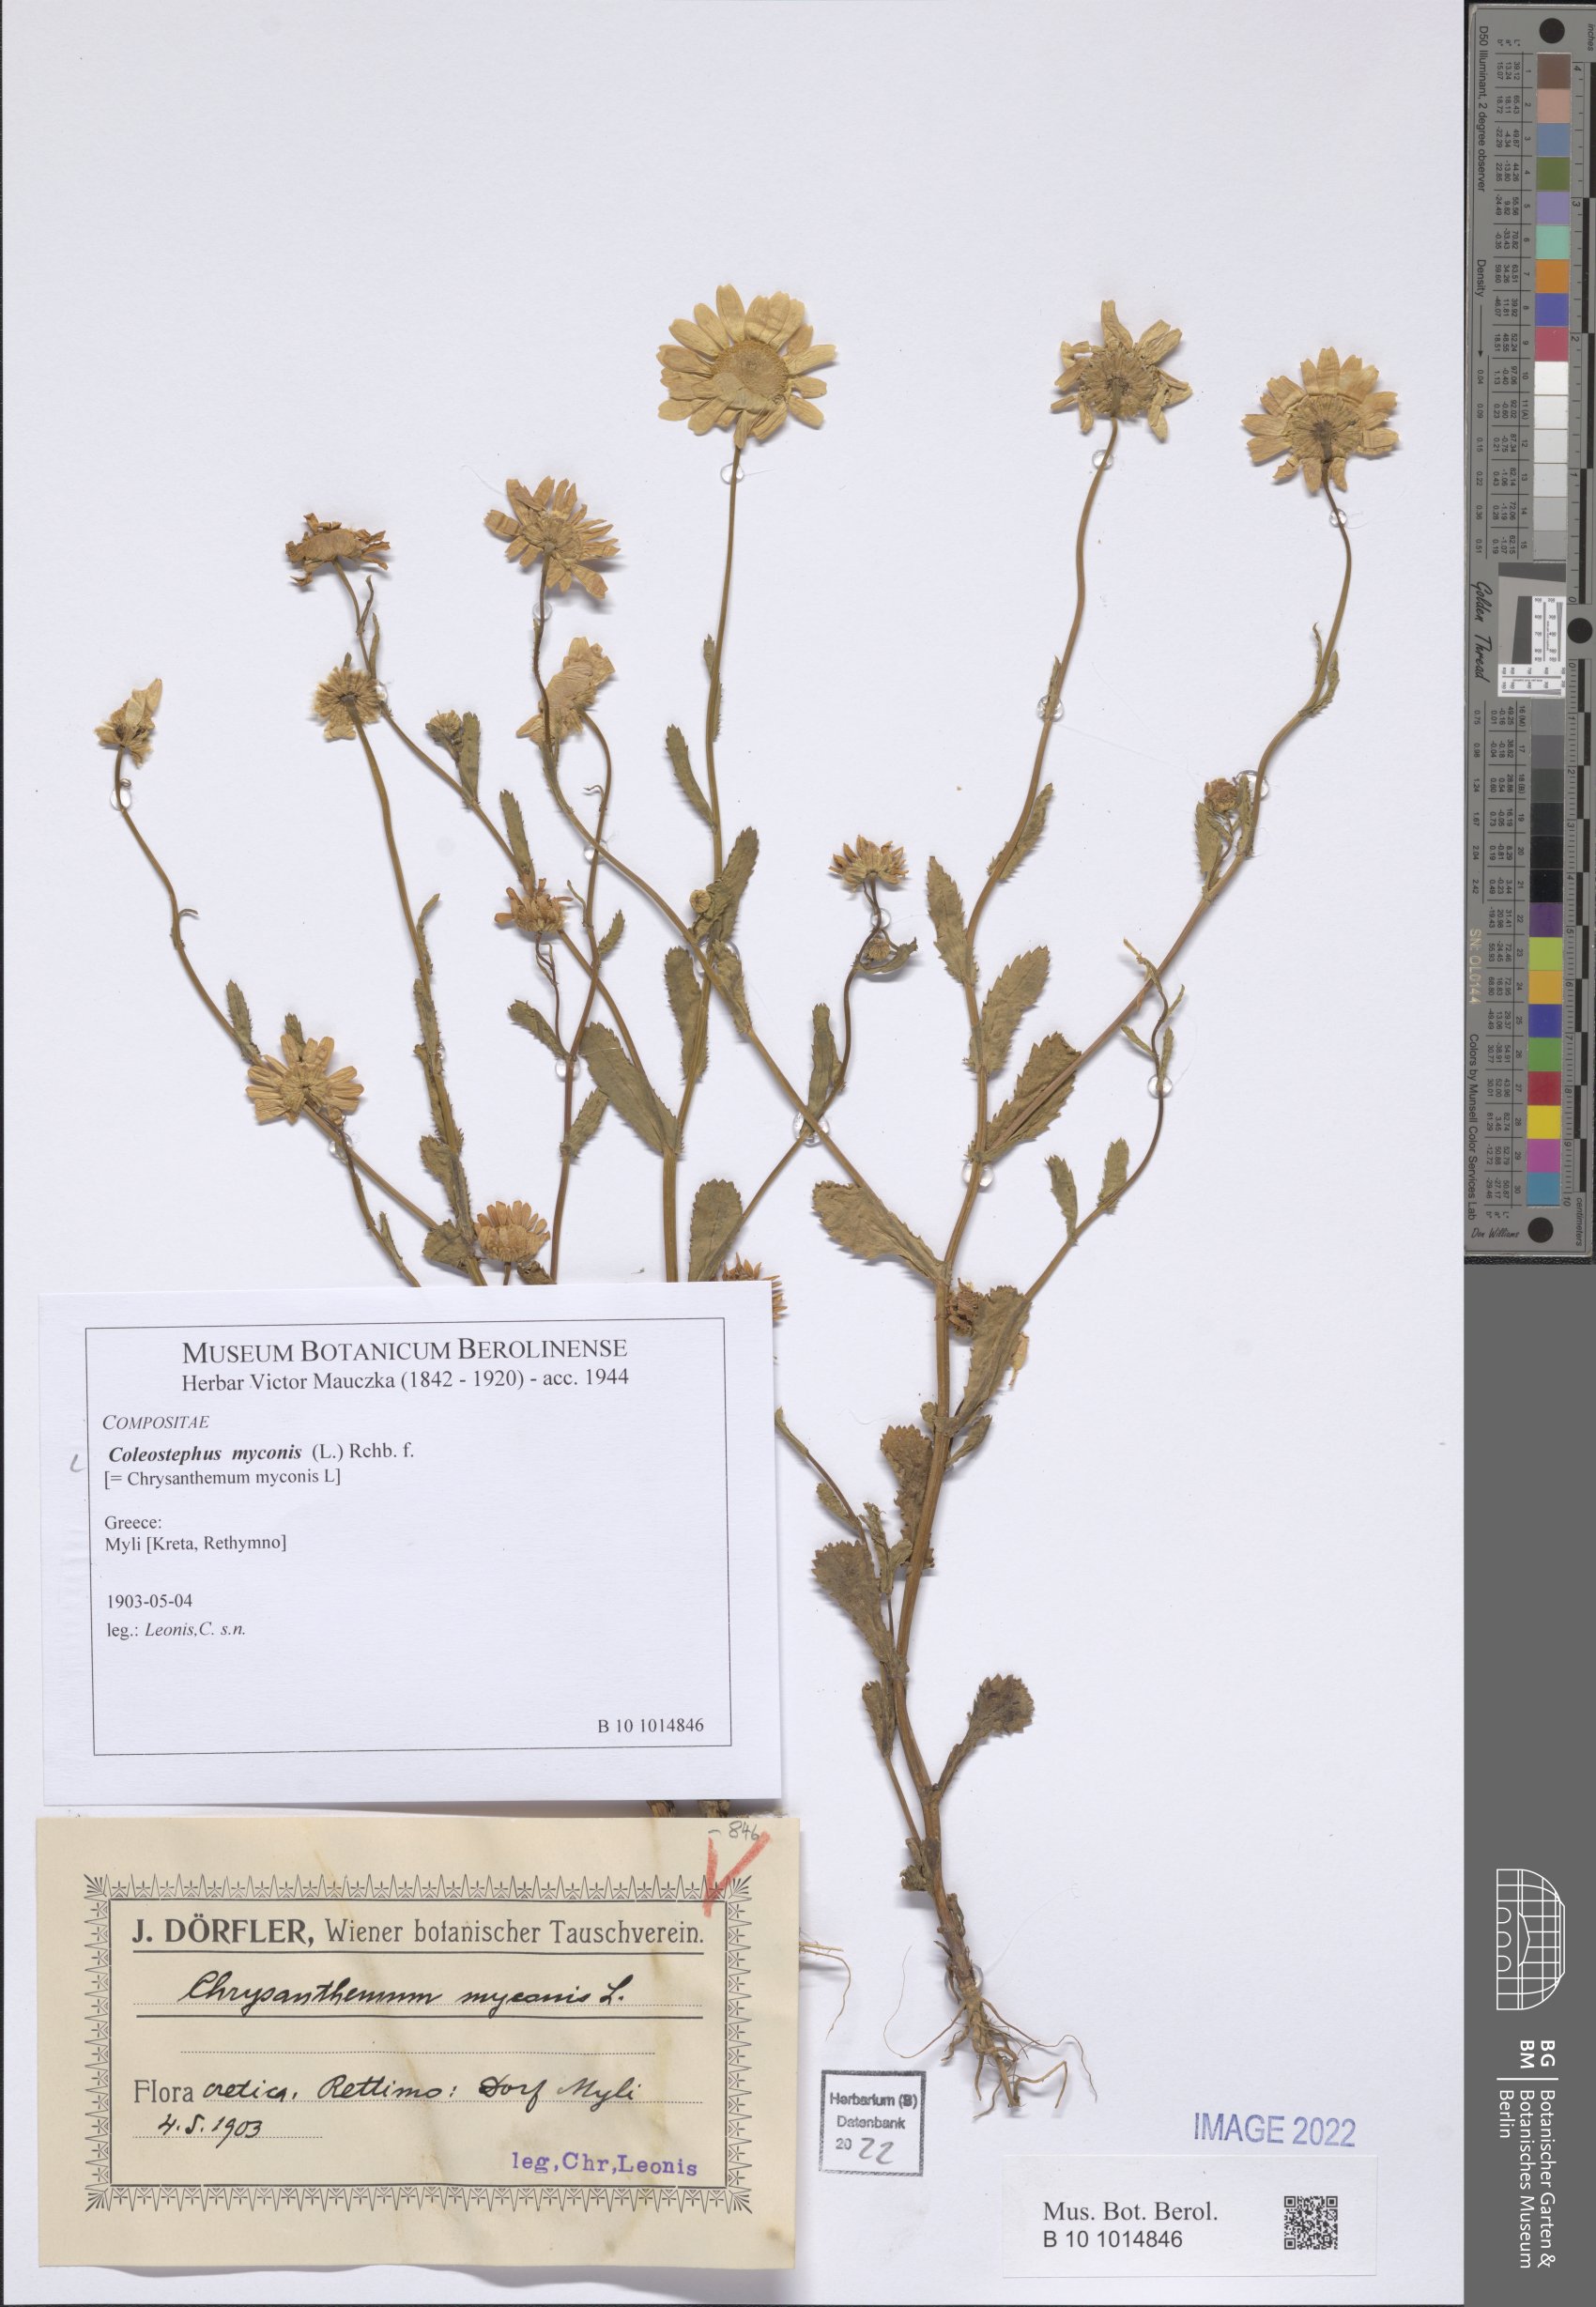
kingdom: Plantae
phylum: Tracheophyta
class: Magnoliopsida
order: Asterales
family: Asteraceae
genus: Coleostephus
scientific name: Coleostephus myconis
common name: Mediterranean marigold
